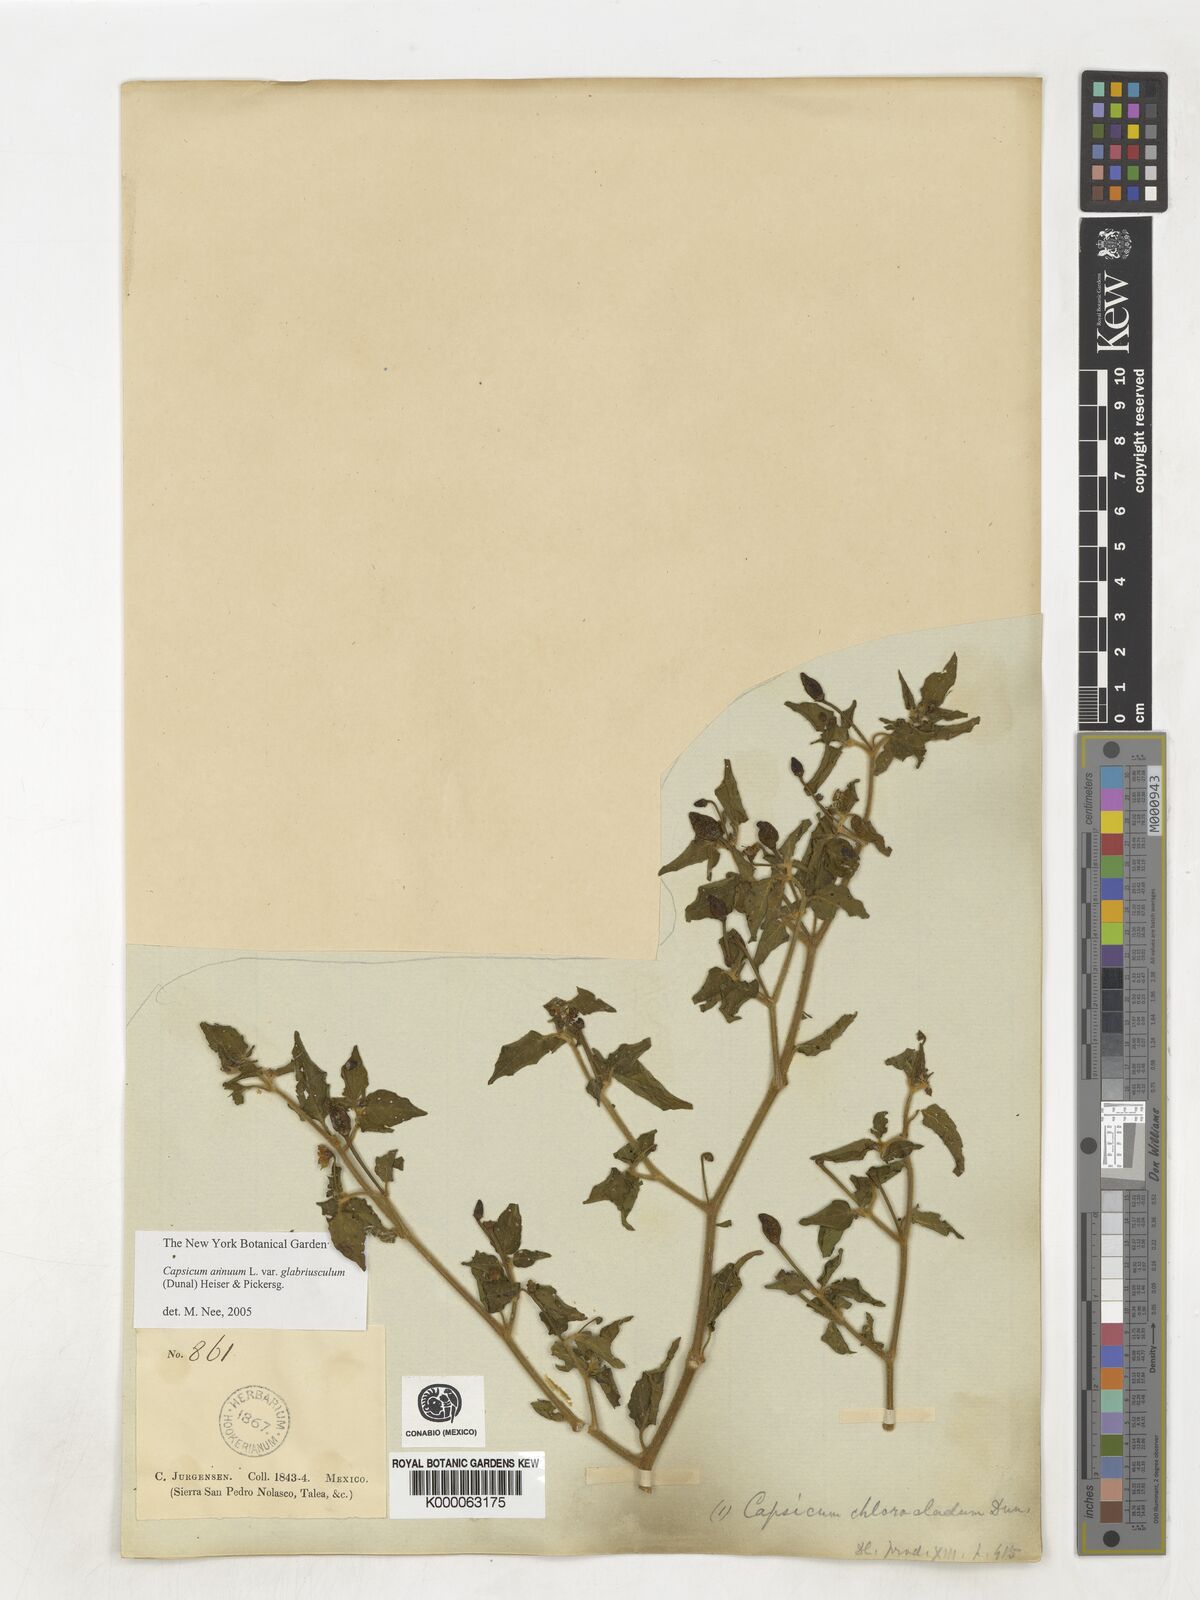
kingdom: Plantae
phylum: Tracheophyta
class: Magnoliopsida
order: Solanales
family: Solanaceae
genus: Capsicum
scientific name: Capsicum annuum
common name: Sweet pepper
